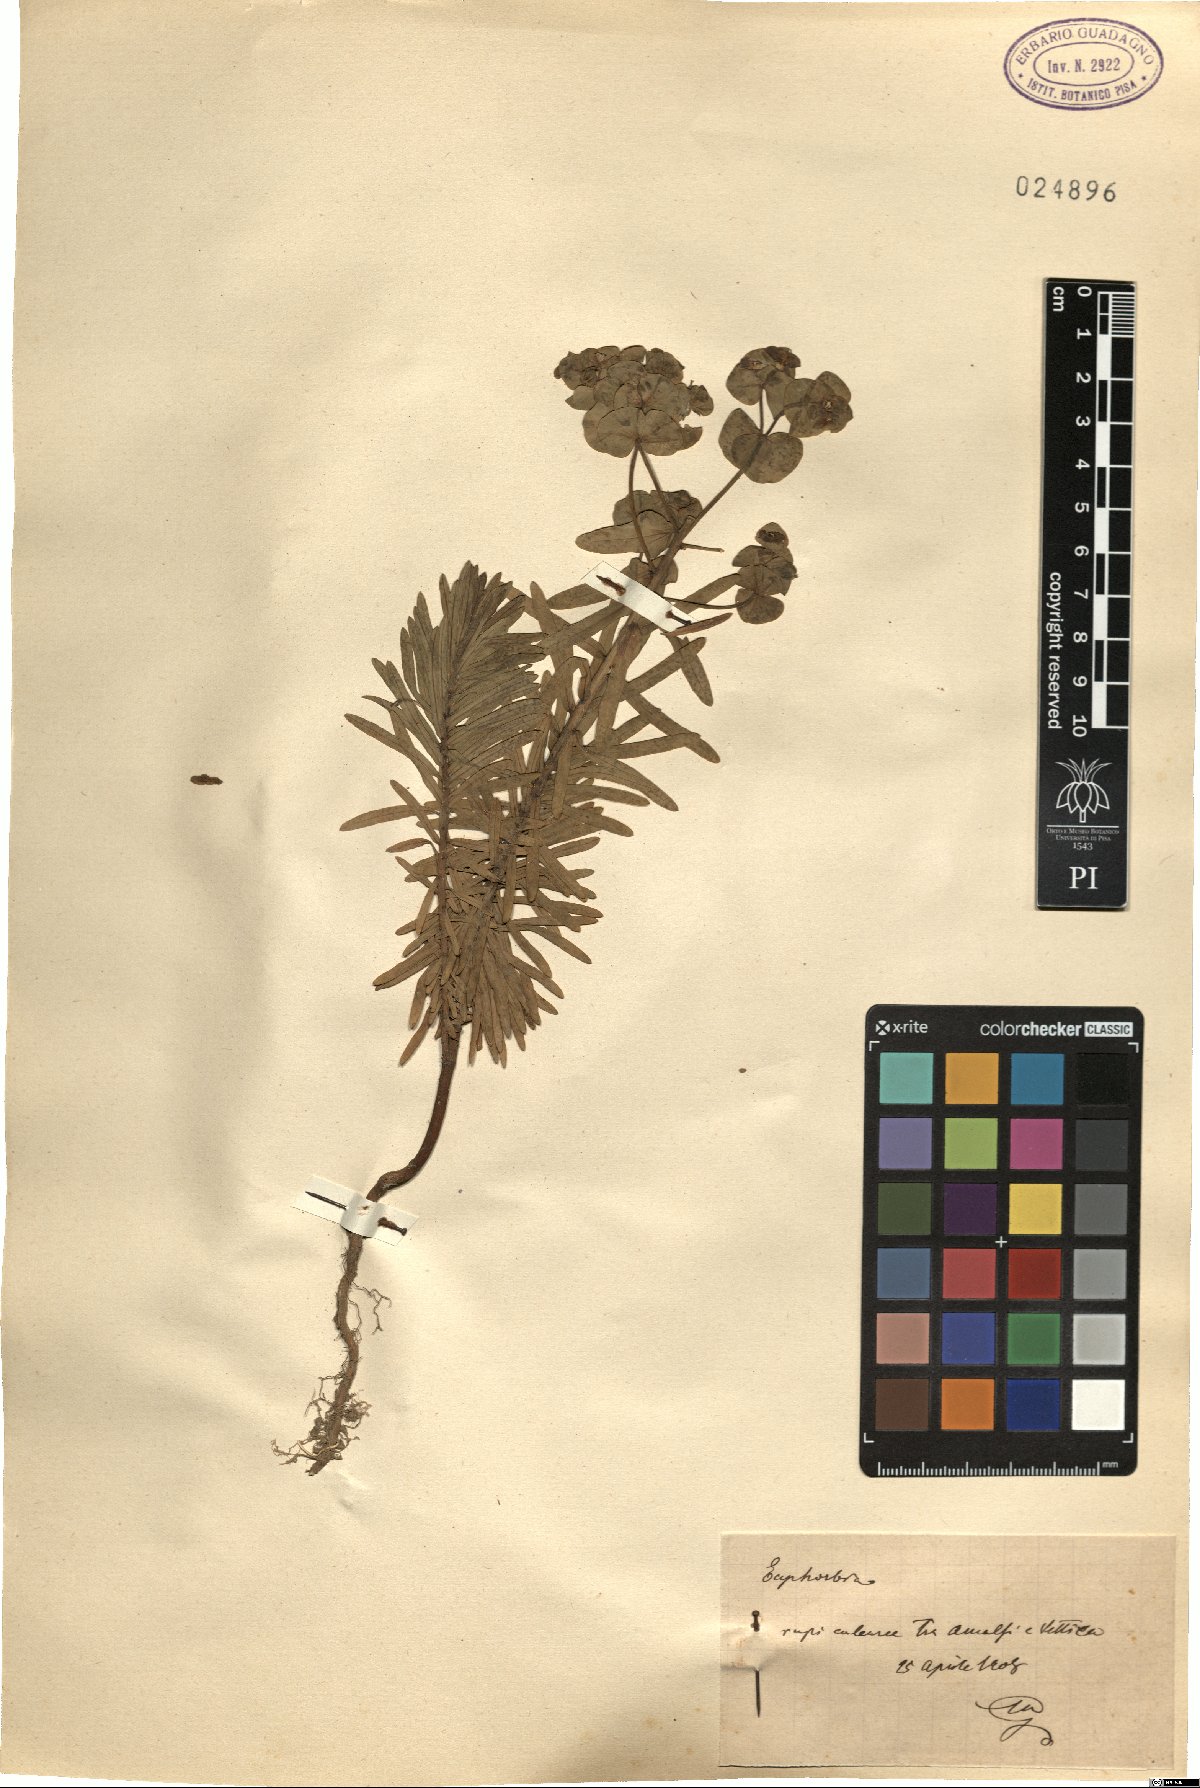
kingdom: Plantae
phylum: Tracheophyta
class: Magnoliopsida
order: Malpighiales
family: Euphorbiaceae
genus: Euphorbia
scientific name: Euphorbia
